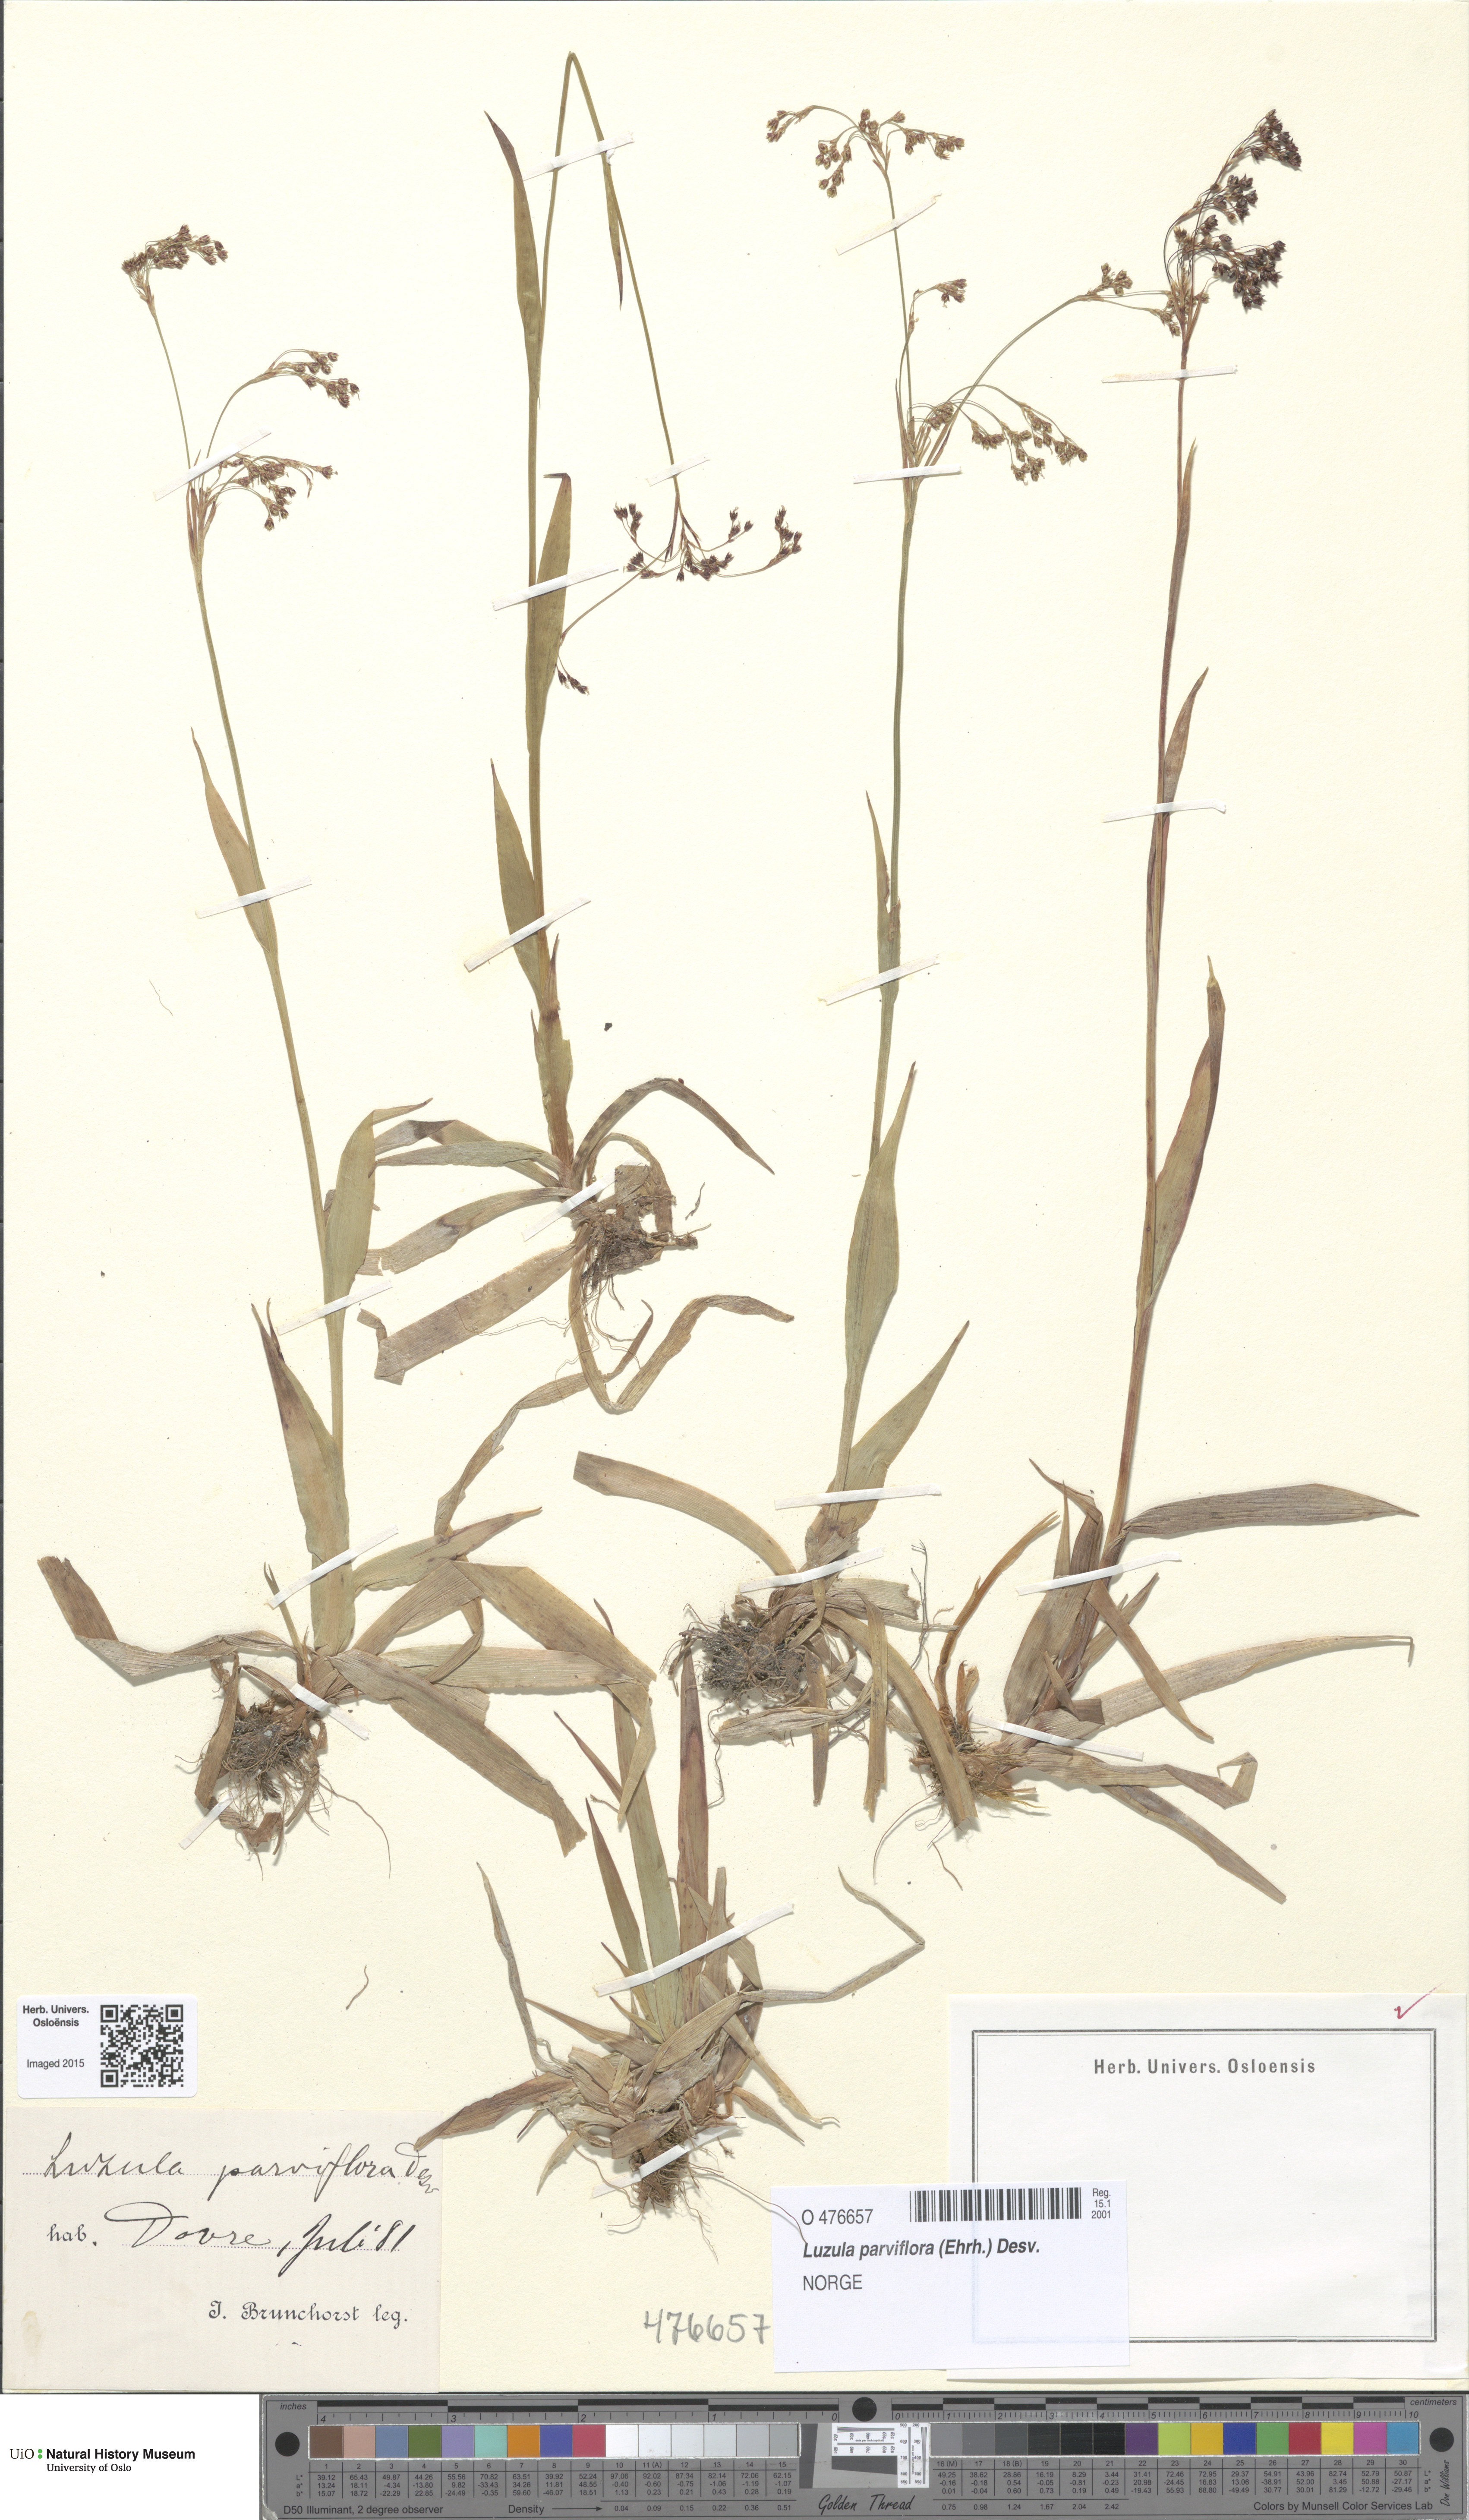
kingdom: Plantae
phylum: Tracheophyta
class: Liliopsida
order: Poales
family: Juncaceae
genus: Luzula
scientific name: Luzula parviflora
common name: Millet woodrush
